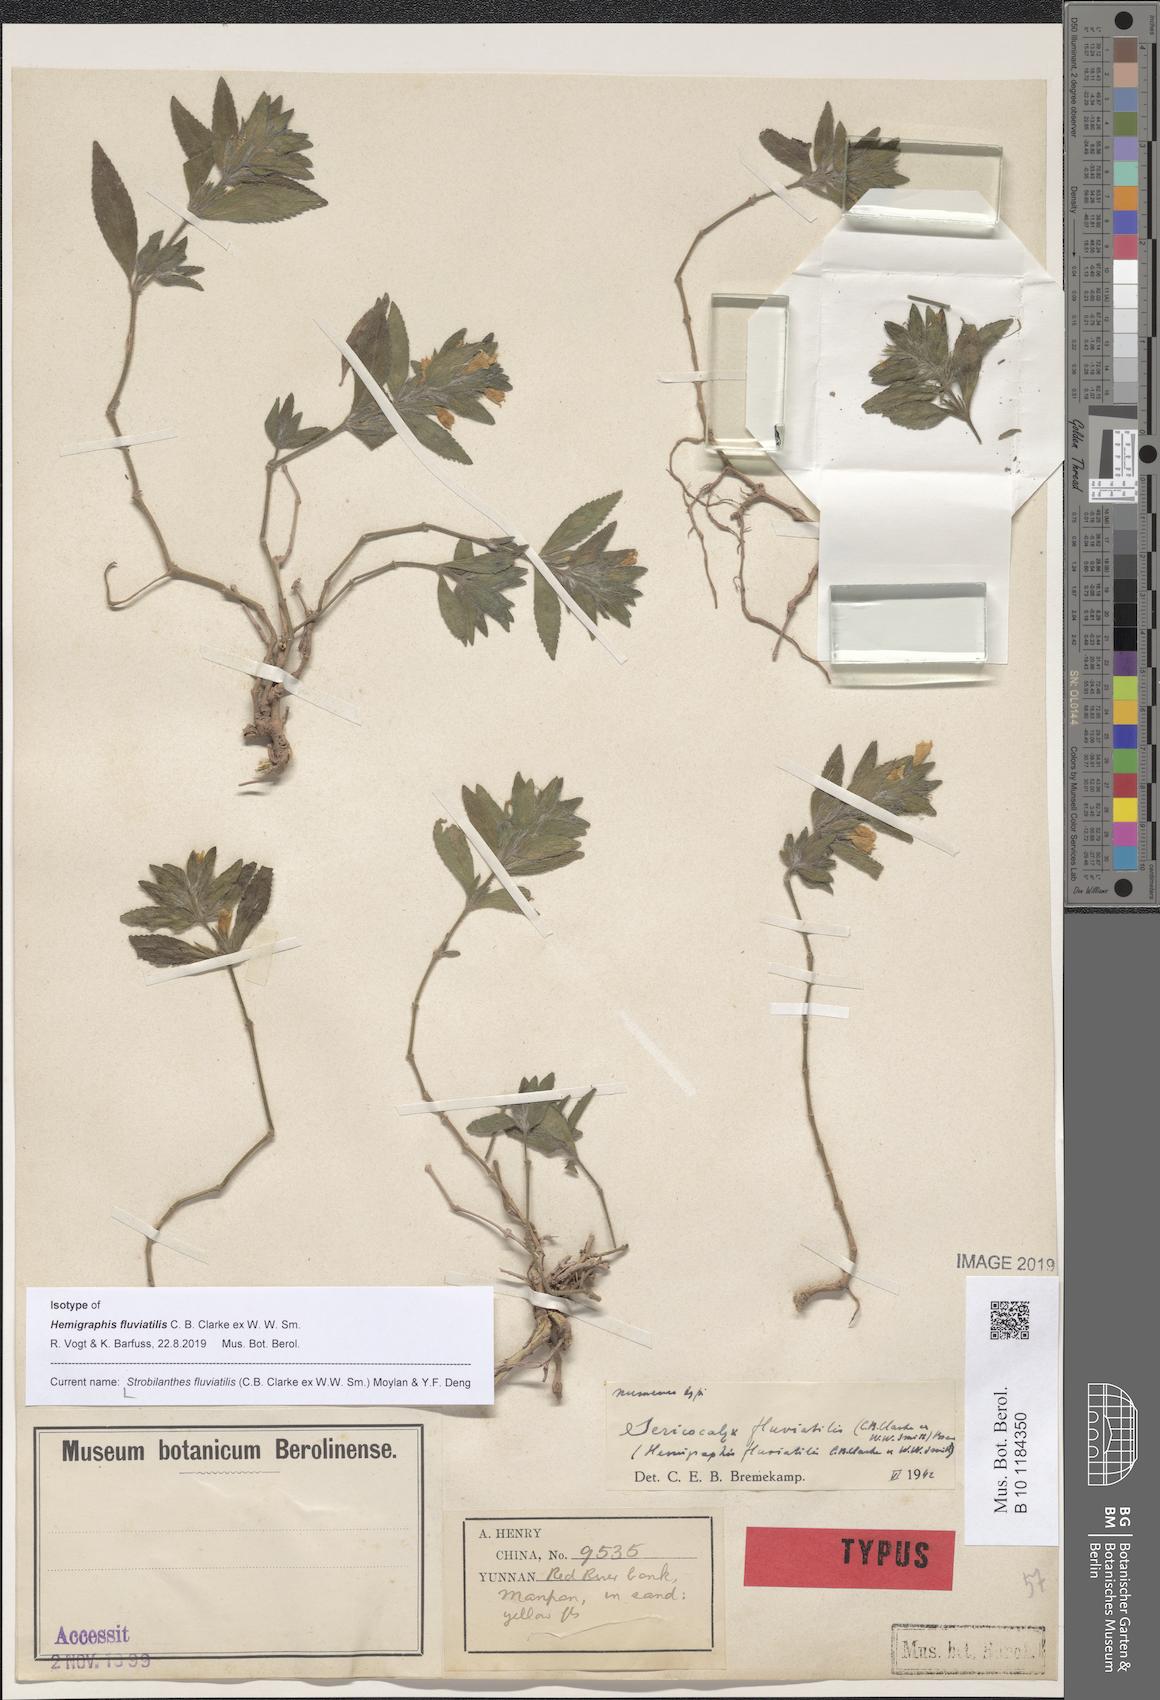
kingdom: Plantae
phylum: Tracheophyta
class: Magnoliopsida
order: Lamiales
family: Acanthaceae
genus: Strobilanthes
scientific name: Strobilanthes fluviatilis
